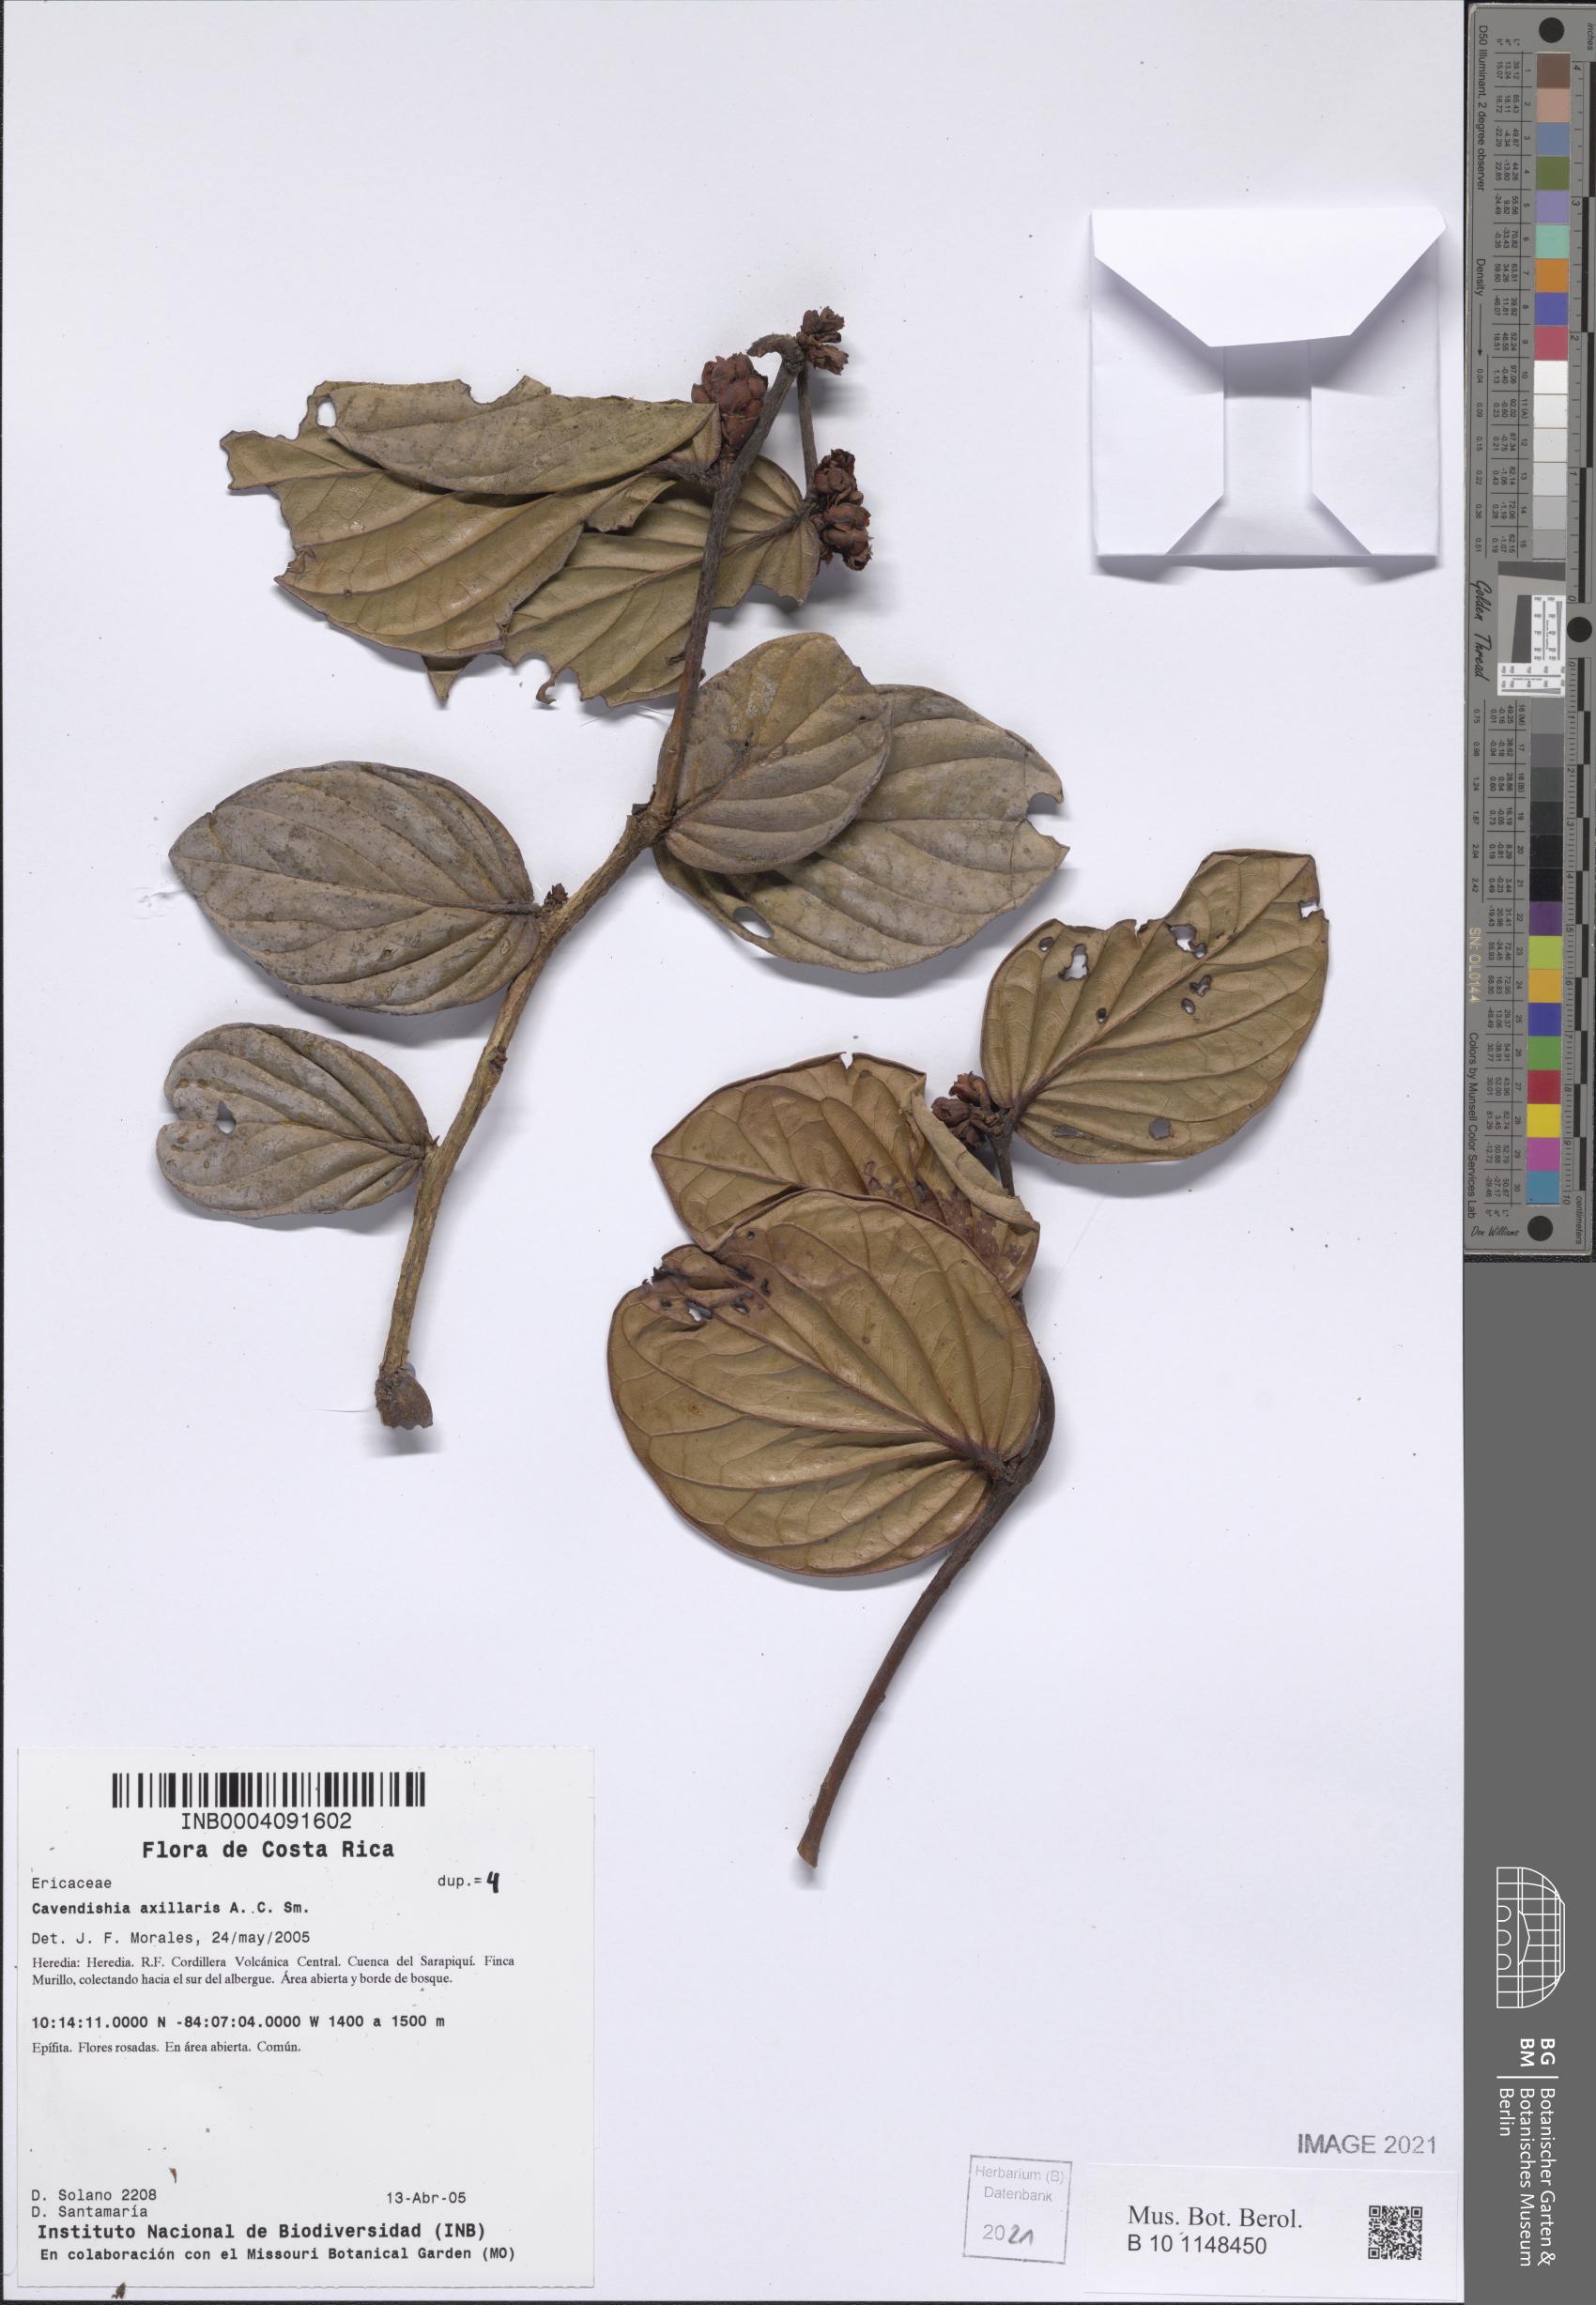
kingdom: Plantae
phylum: Tracheophyta
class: Magnoliopsida
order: Ericales
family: Ericaceae
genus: Cavendishia
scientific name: Cavendishia axillaris
